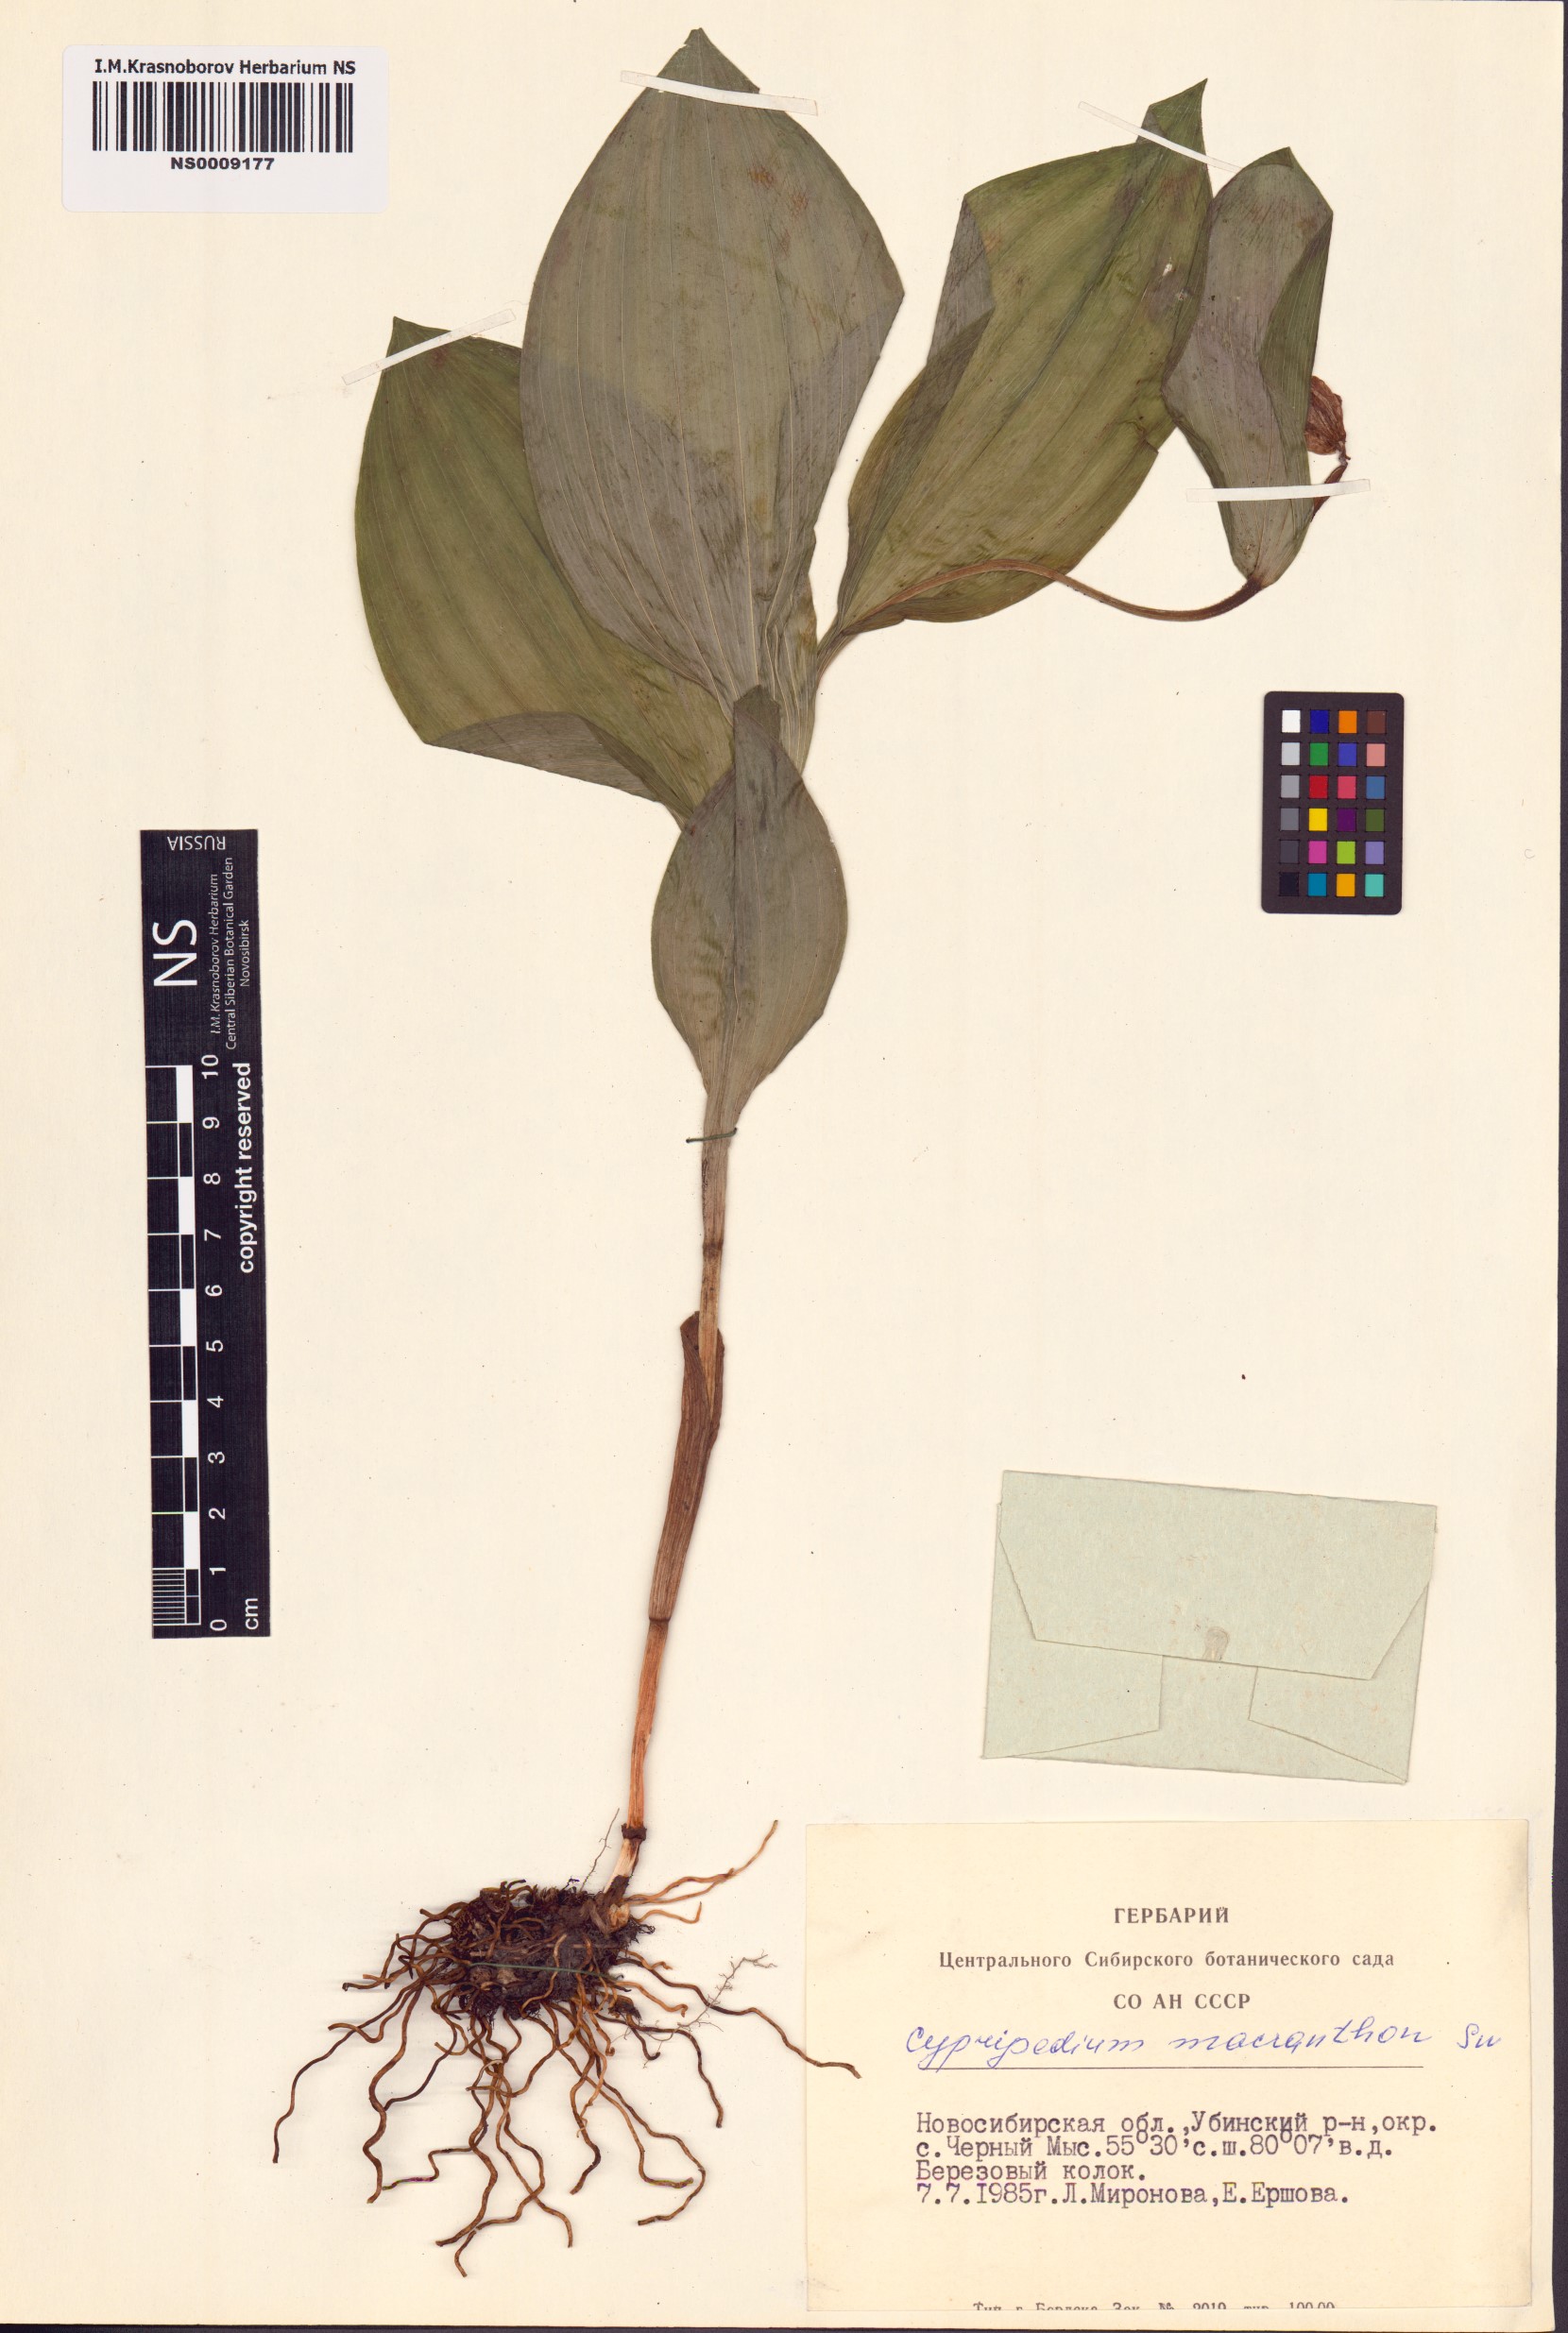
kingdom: Plantae
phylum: Tracheophyta
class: Liliopsida
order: Asparagales
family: Orchidaceae
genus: Cypripedium
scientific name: Cypripedium macranthos
